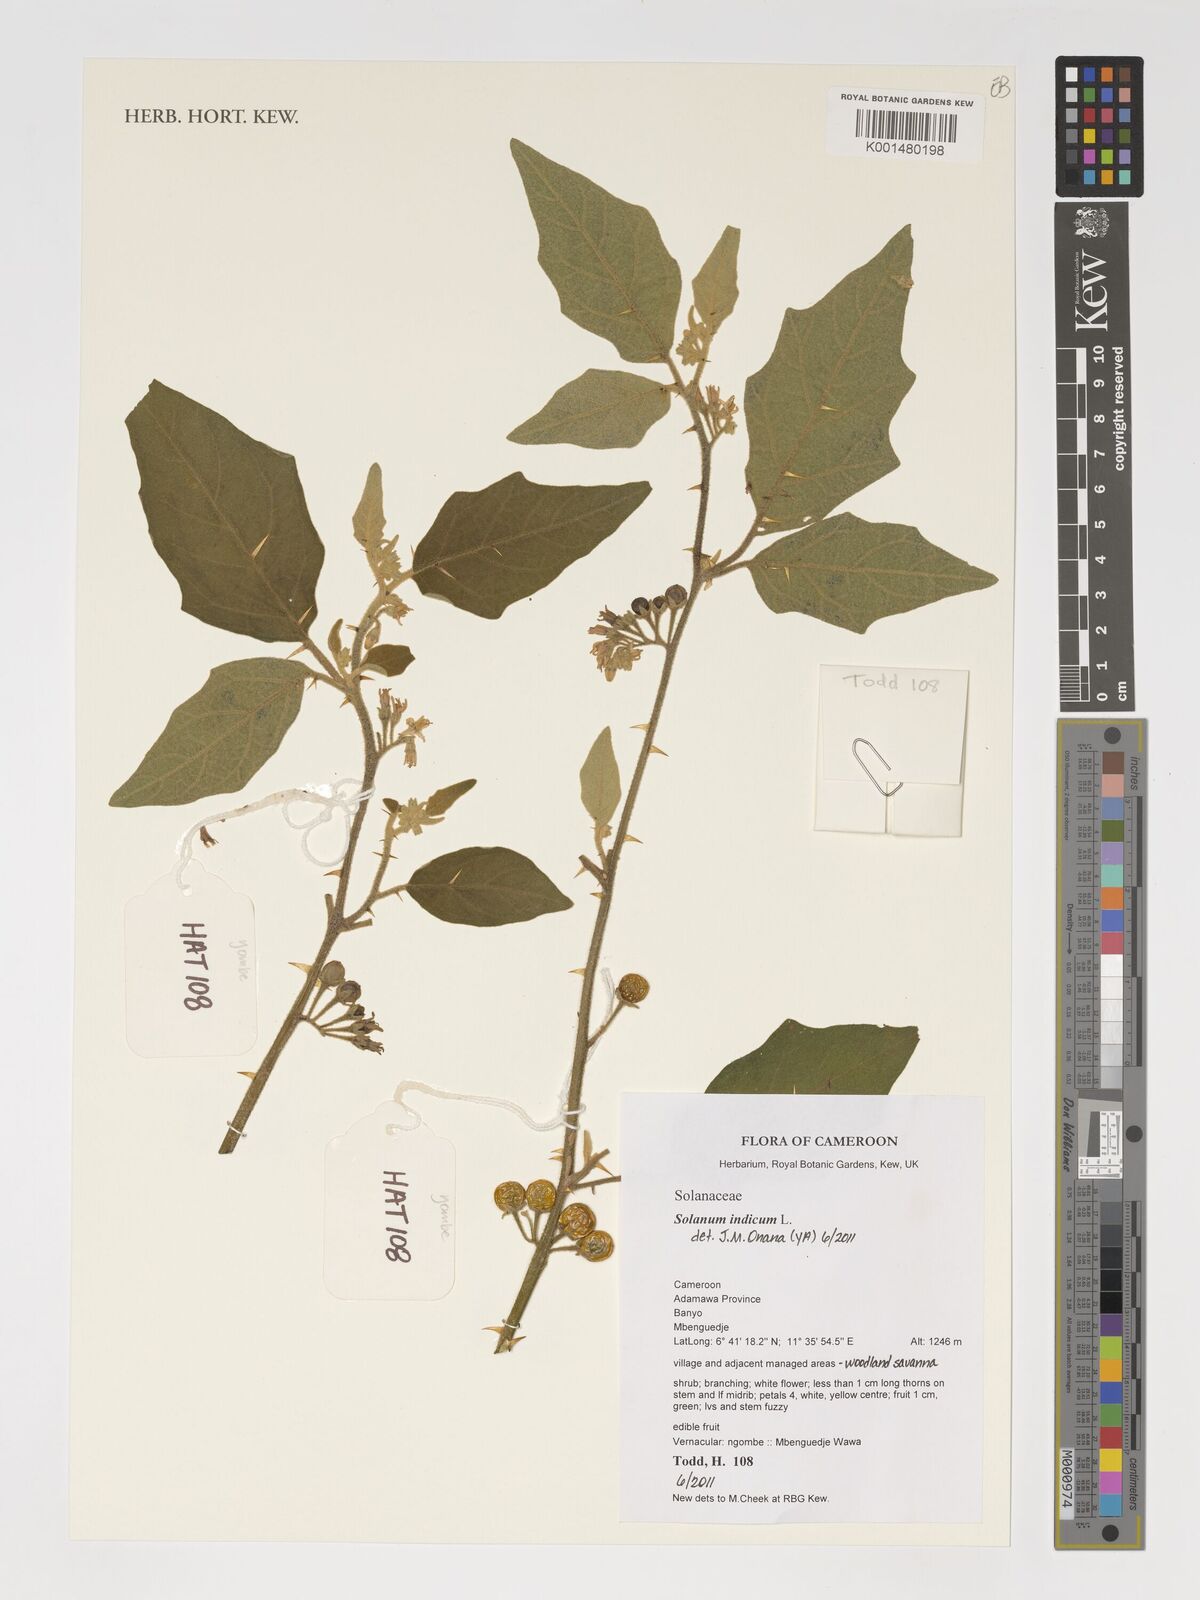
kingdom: Plantae
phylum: Tracheophyta
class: Magnoliopsida
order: Solanales
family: Solanaceae
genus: Solanum
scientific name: Solanum violaceum
